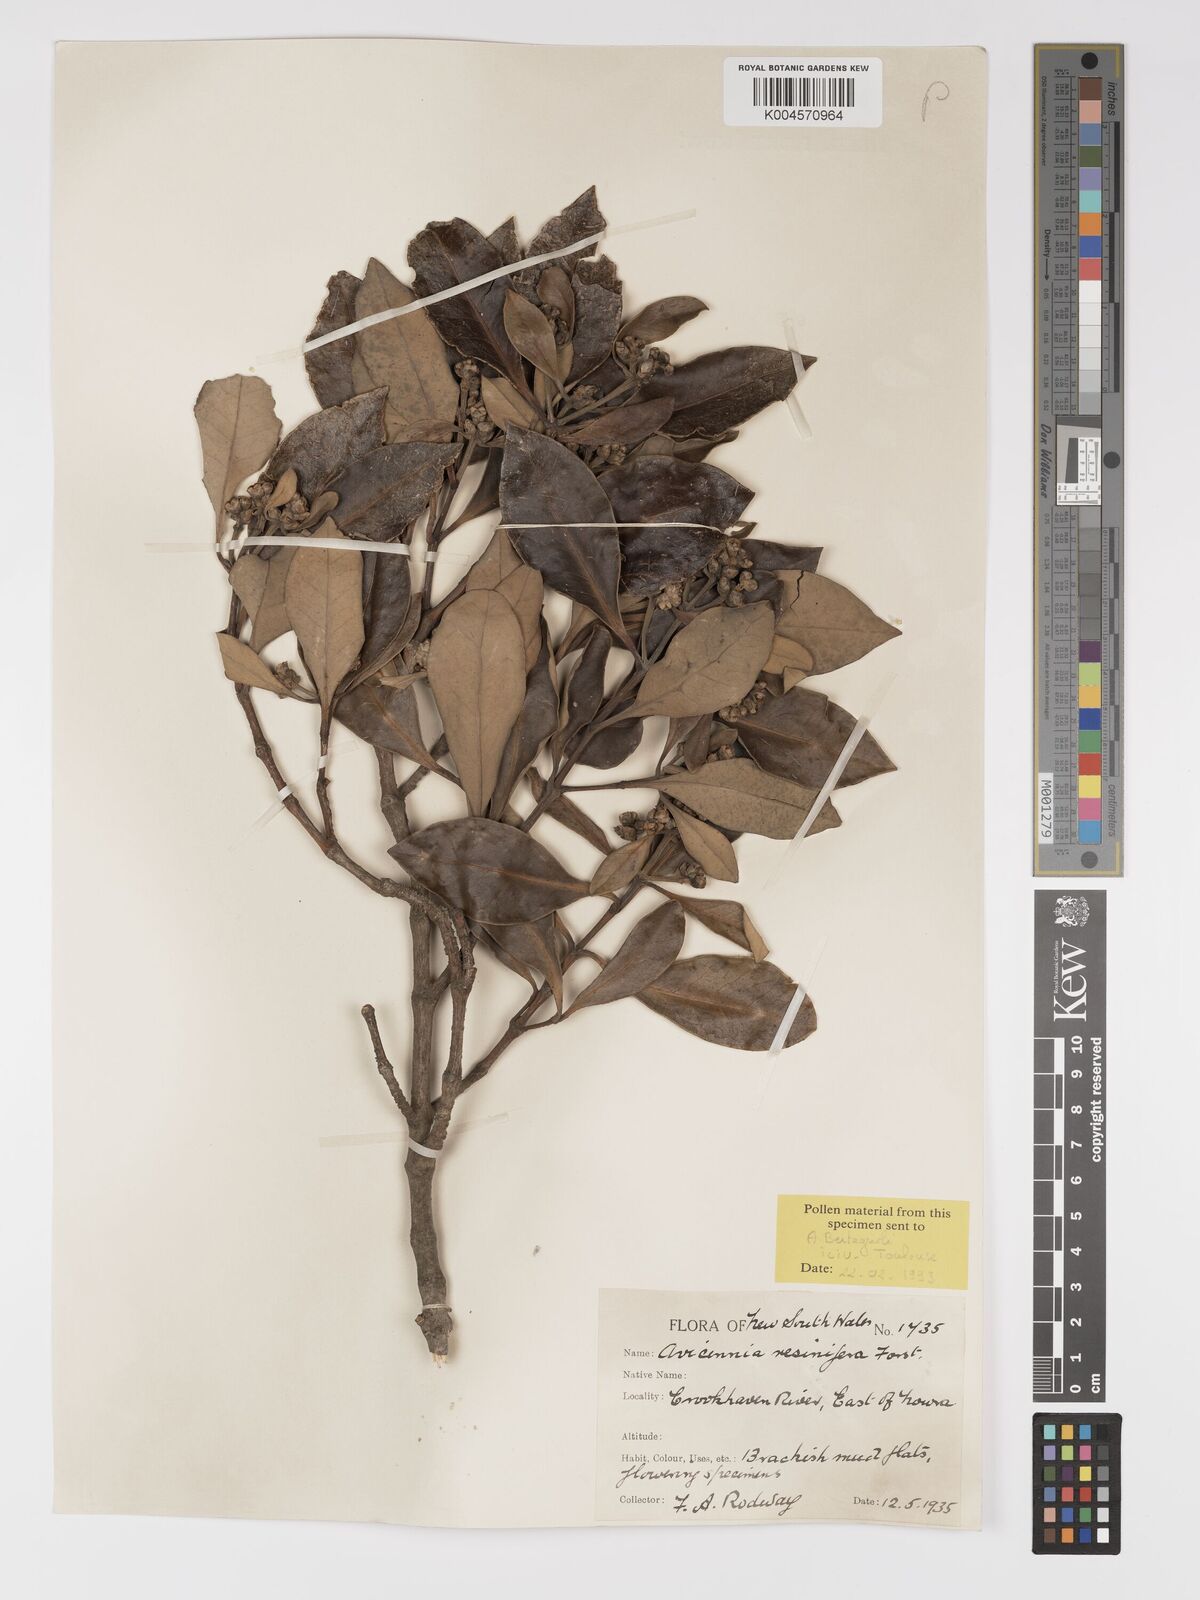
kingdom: Plantae
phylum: Tracheophyta
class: Magnoliopsida
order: Lamiales
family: Acanthaceae
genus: Avicennia
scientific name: Avicennia marina
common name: Gray mangrove
